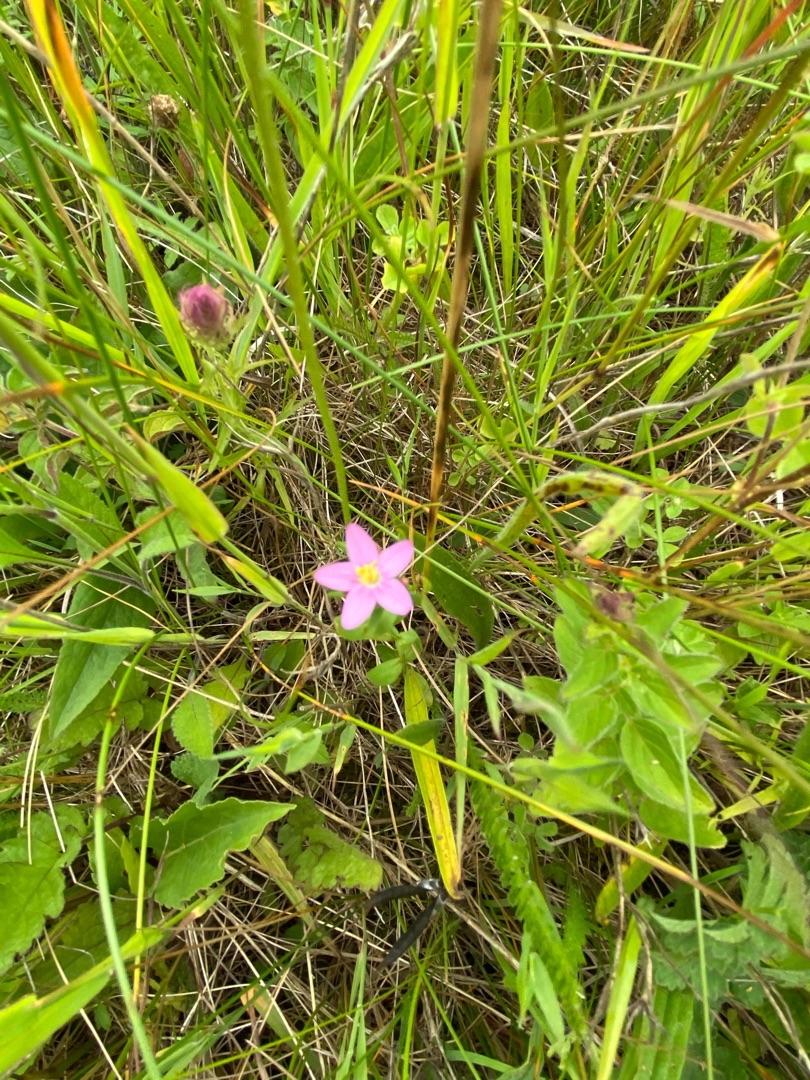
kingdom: Plantae
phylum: Tracheophyta
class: Magnoliopsida
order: Gentianales
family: Gentianaceae
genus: Centaurium
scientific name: Centaurium erythraea
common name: Mark-tusindgylden
